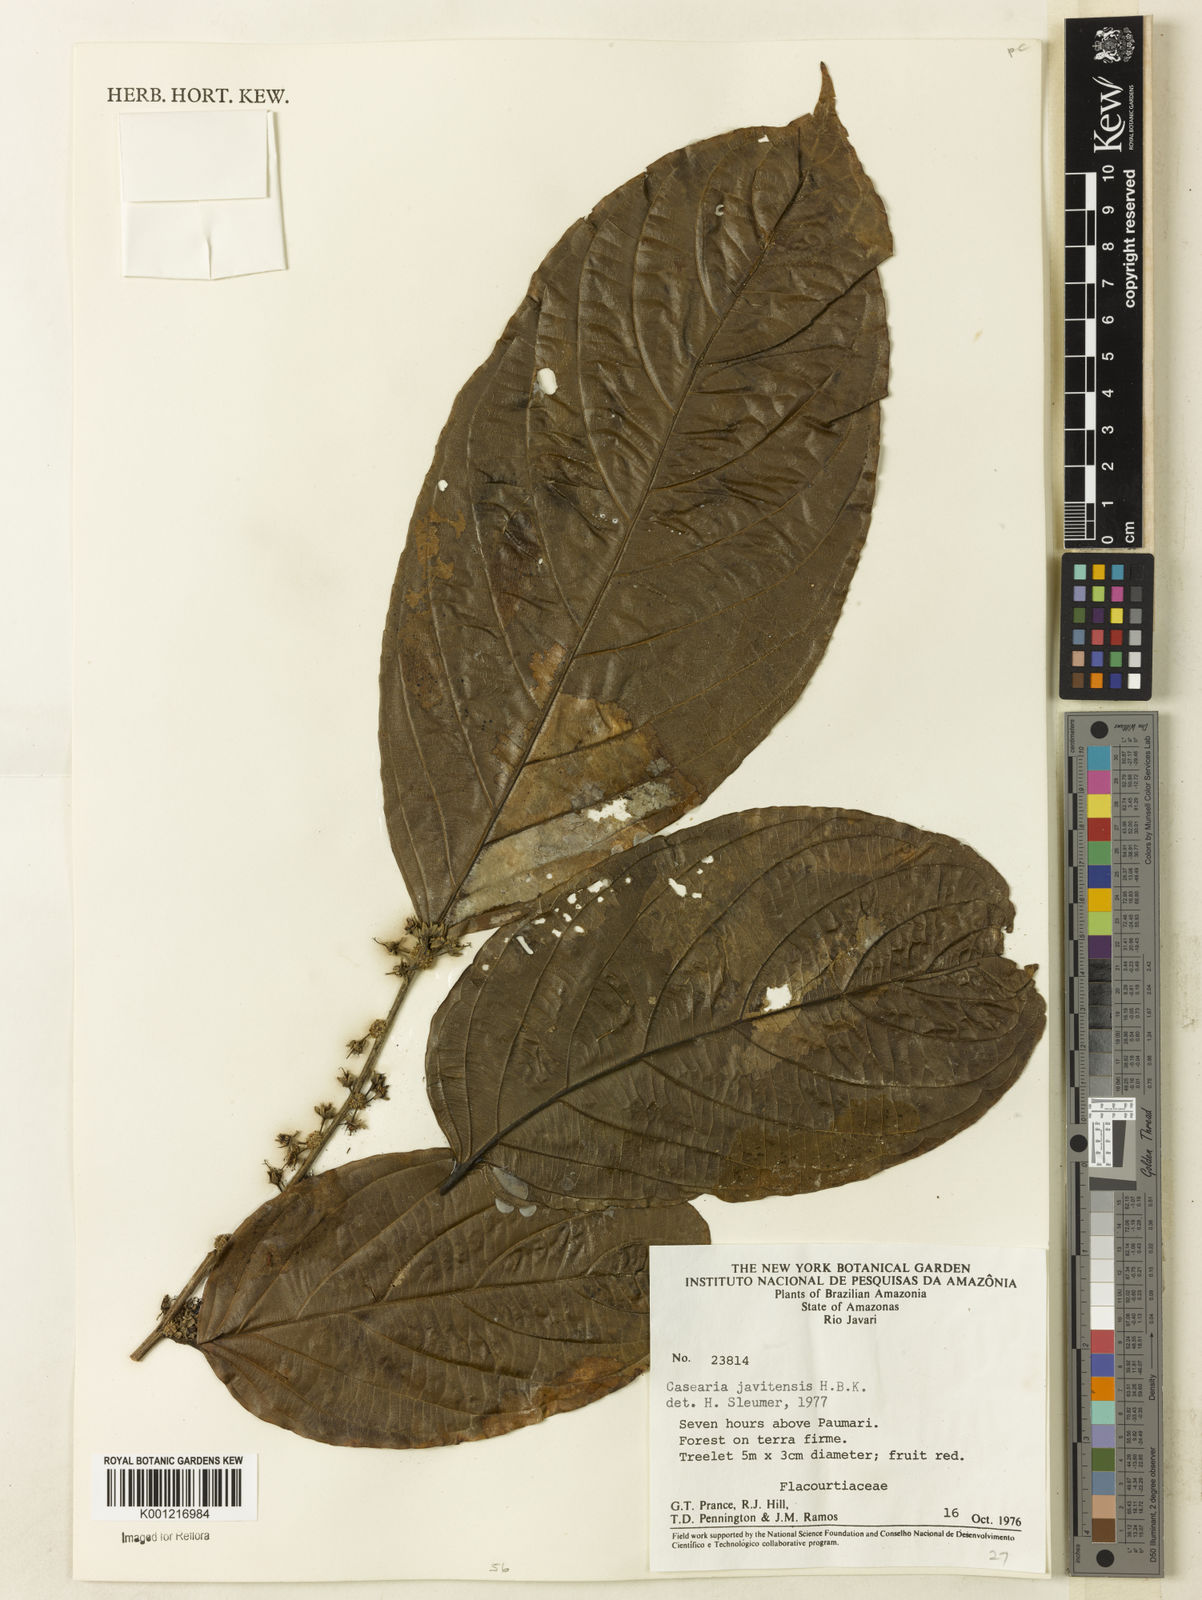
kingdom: Plantae
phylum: Tracheophyta
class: Magnoliopsida
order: Malpighiales
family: Salicaceae
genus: Piparea
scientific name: Piparea multiflora
